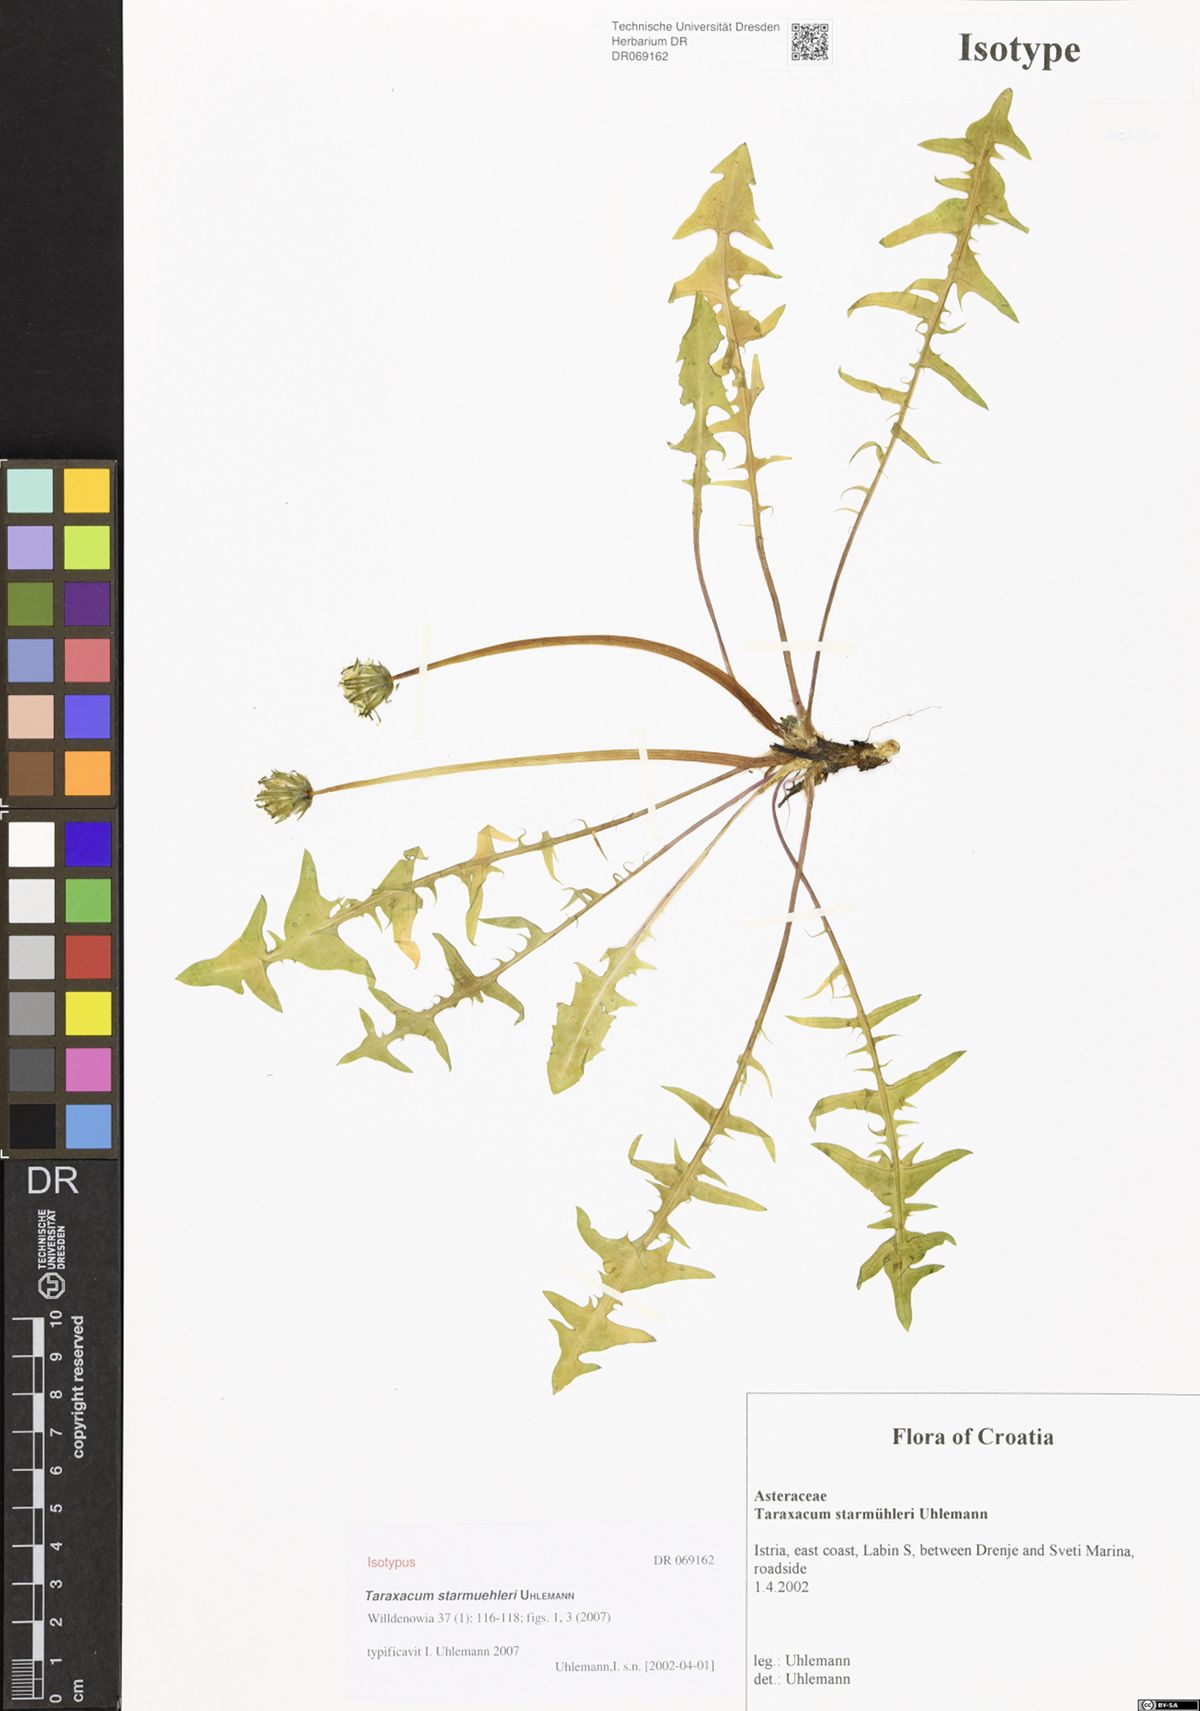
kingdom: Plantae
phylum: Tracheophyta
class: Magnoliopsida
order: Asterales
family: Asteraceae
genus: Taraxacum
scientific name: Taraxacum starmuehleri
